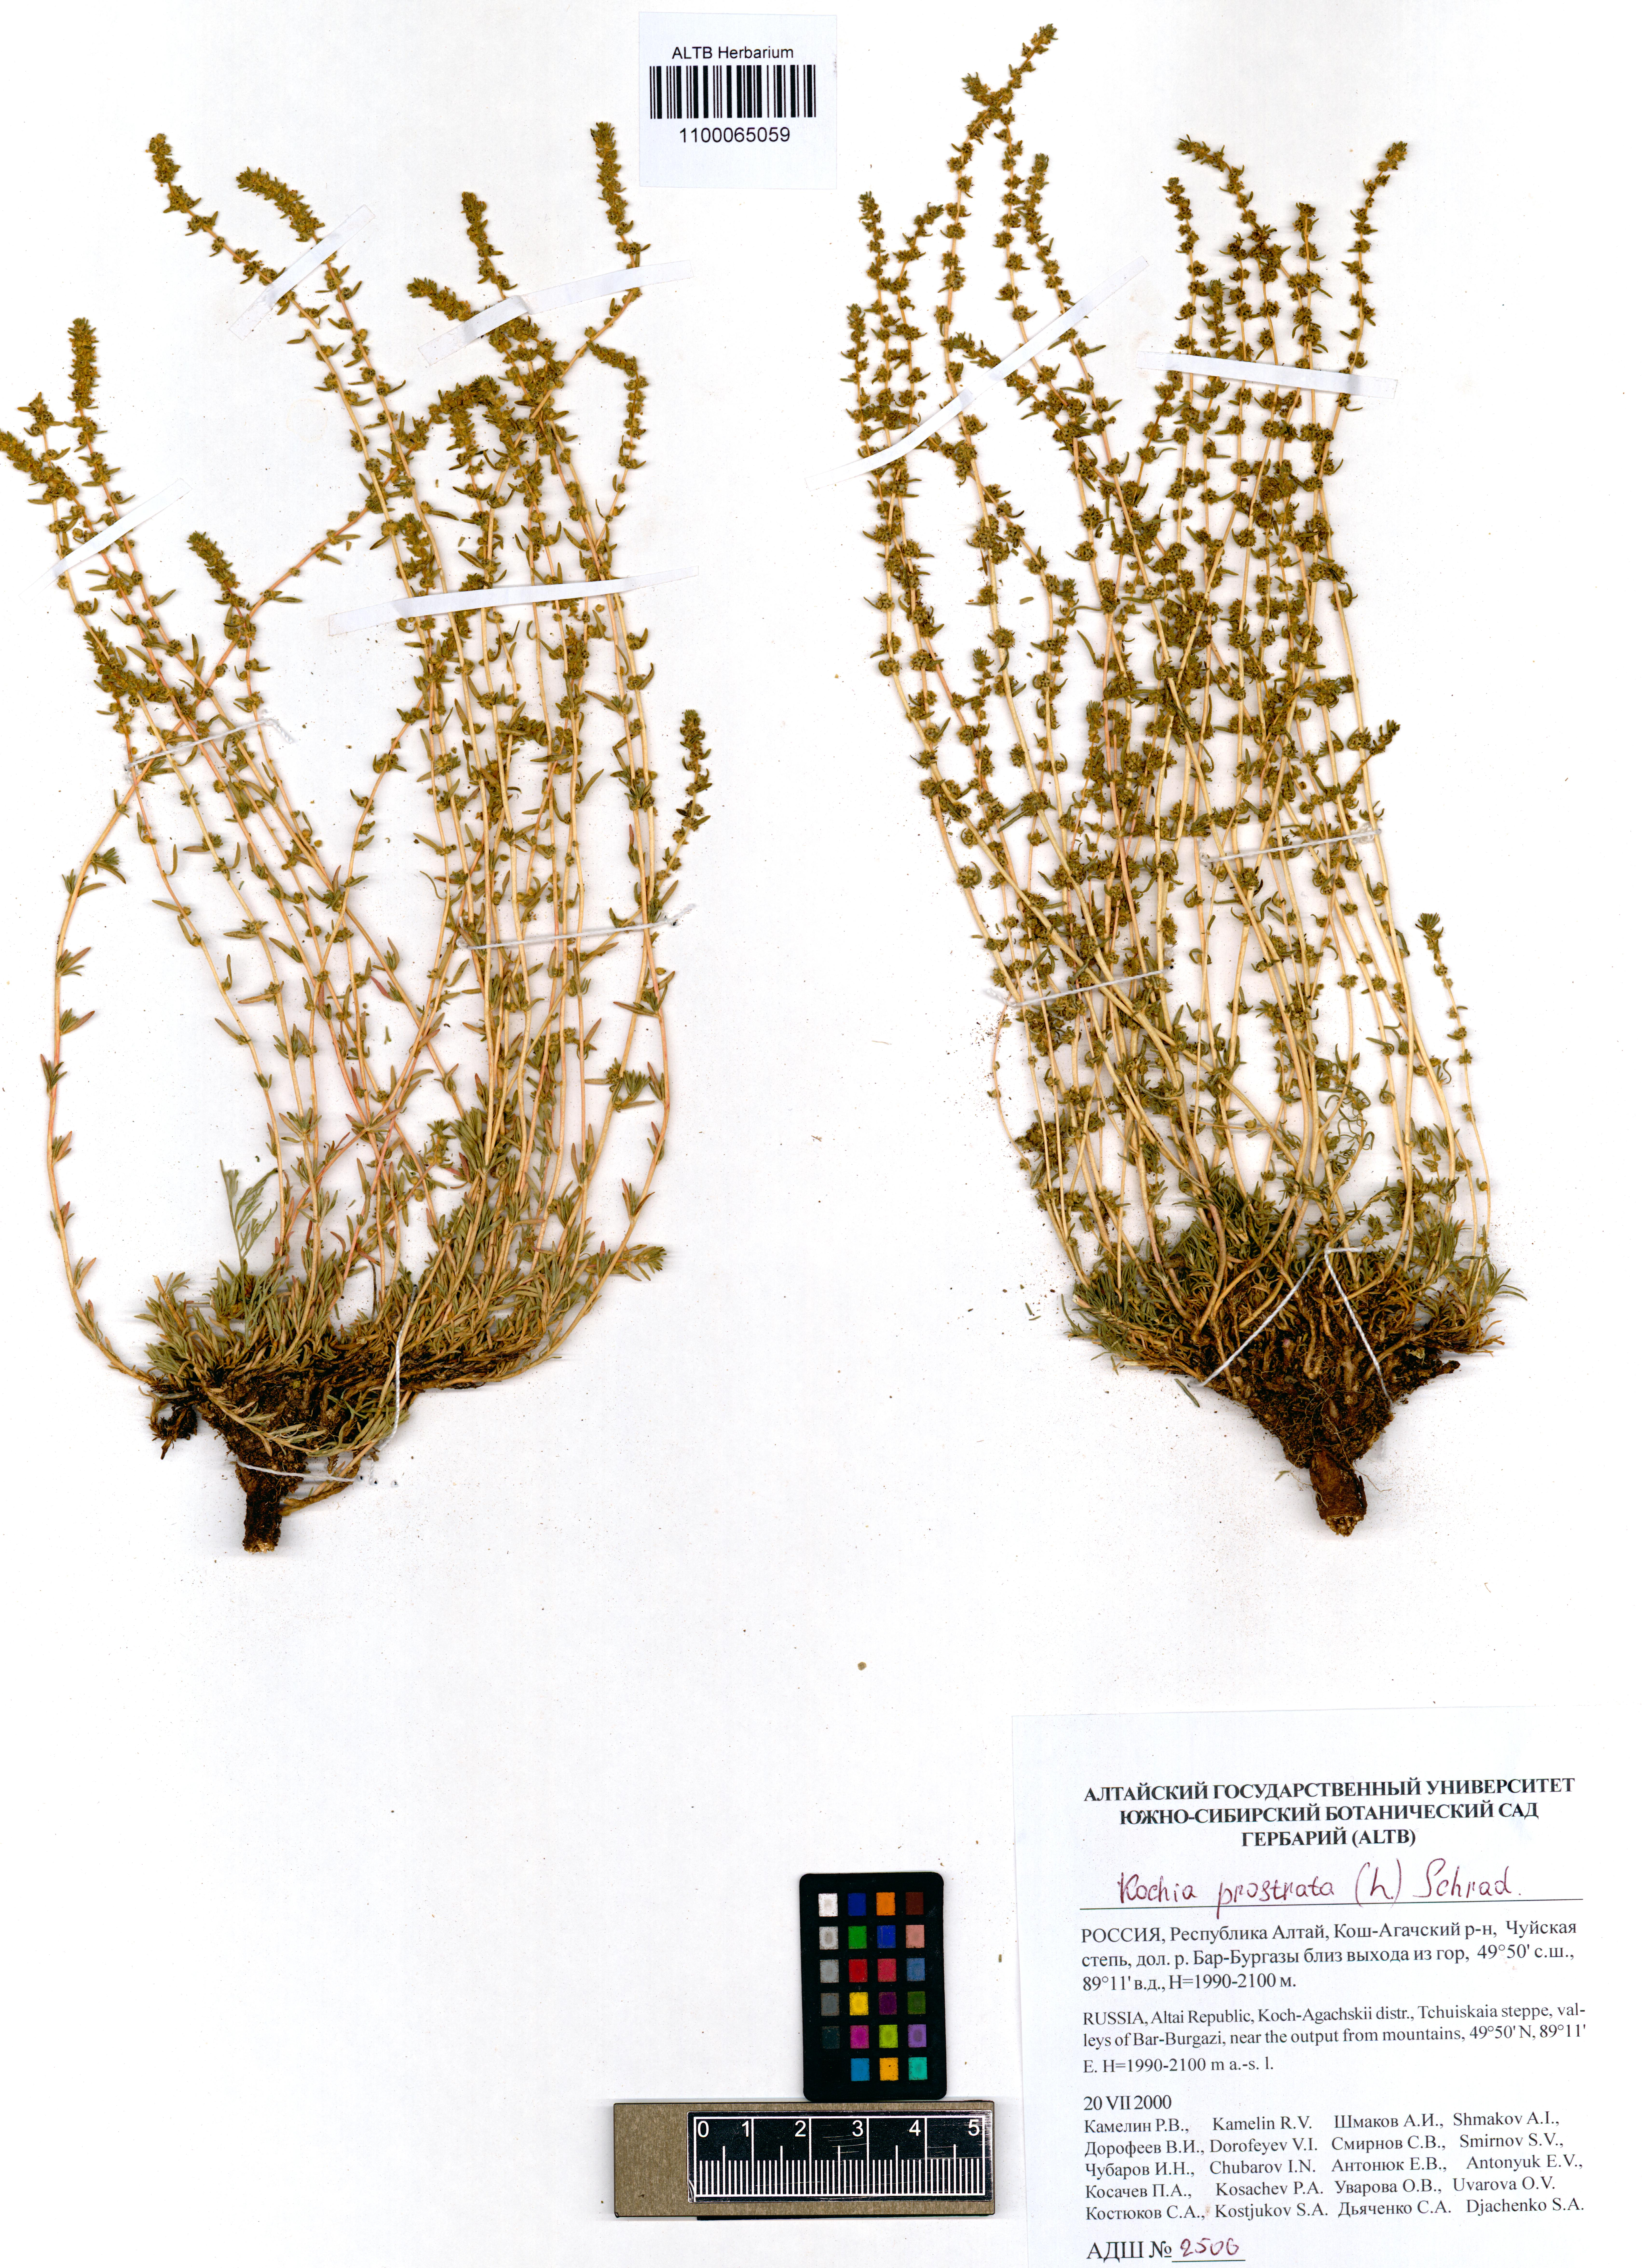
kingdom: Plantae
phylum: Tracheophyta
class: Magnoliopsida
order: Caryophyllales
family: Amaranthaceae
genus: Bassia
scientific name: Bassia prostrata
